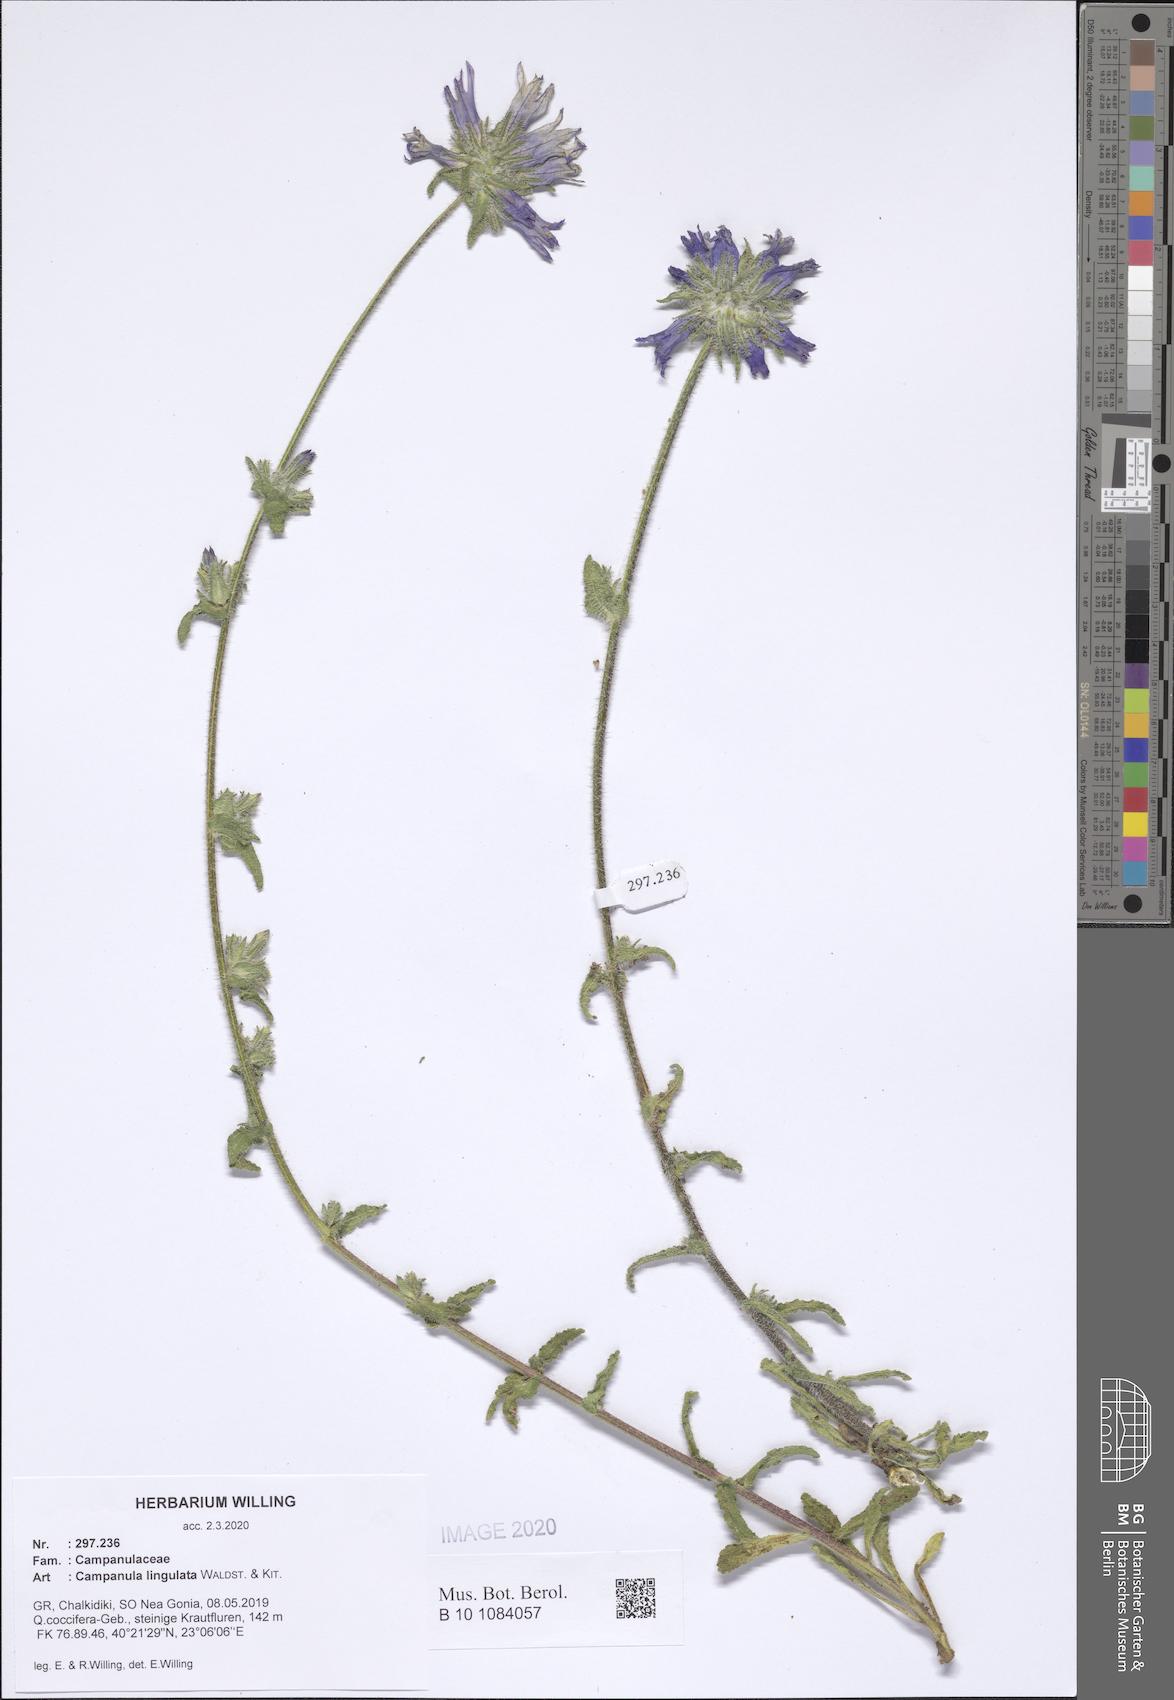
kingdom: Plantae
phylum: Tracheophyta
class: Magnoliopsida
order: Asterales
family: Campanulaceae
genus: Campanula
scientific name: Campanula lingulata
